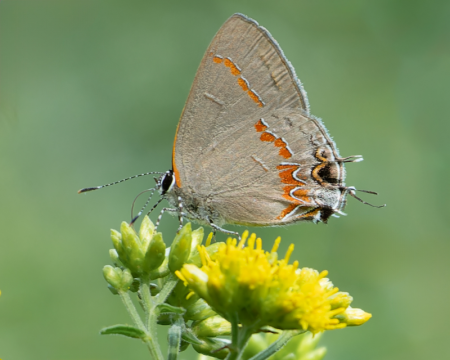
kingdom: Animalia
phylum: Arthropoda
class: Insecta
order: Lepidoptera
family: Lycaenidae
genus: Calycopis
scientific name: Calycopis cecrops
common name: Red-banded Hairstreak
